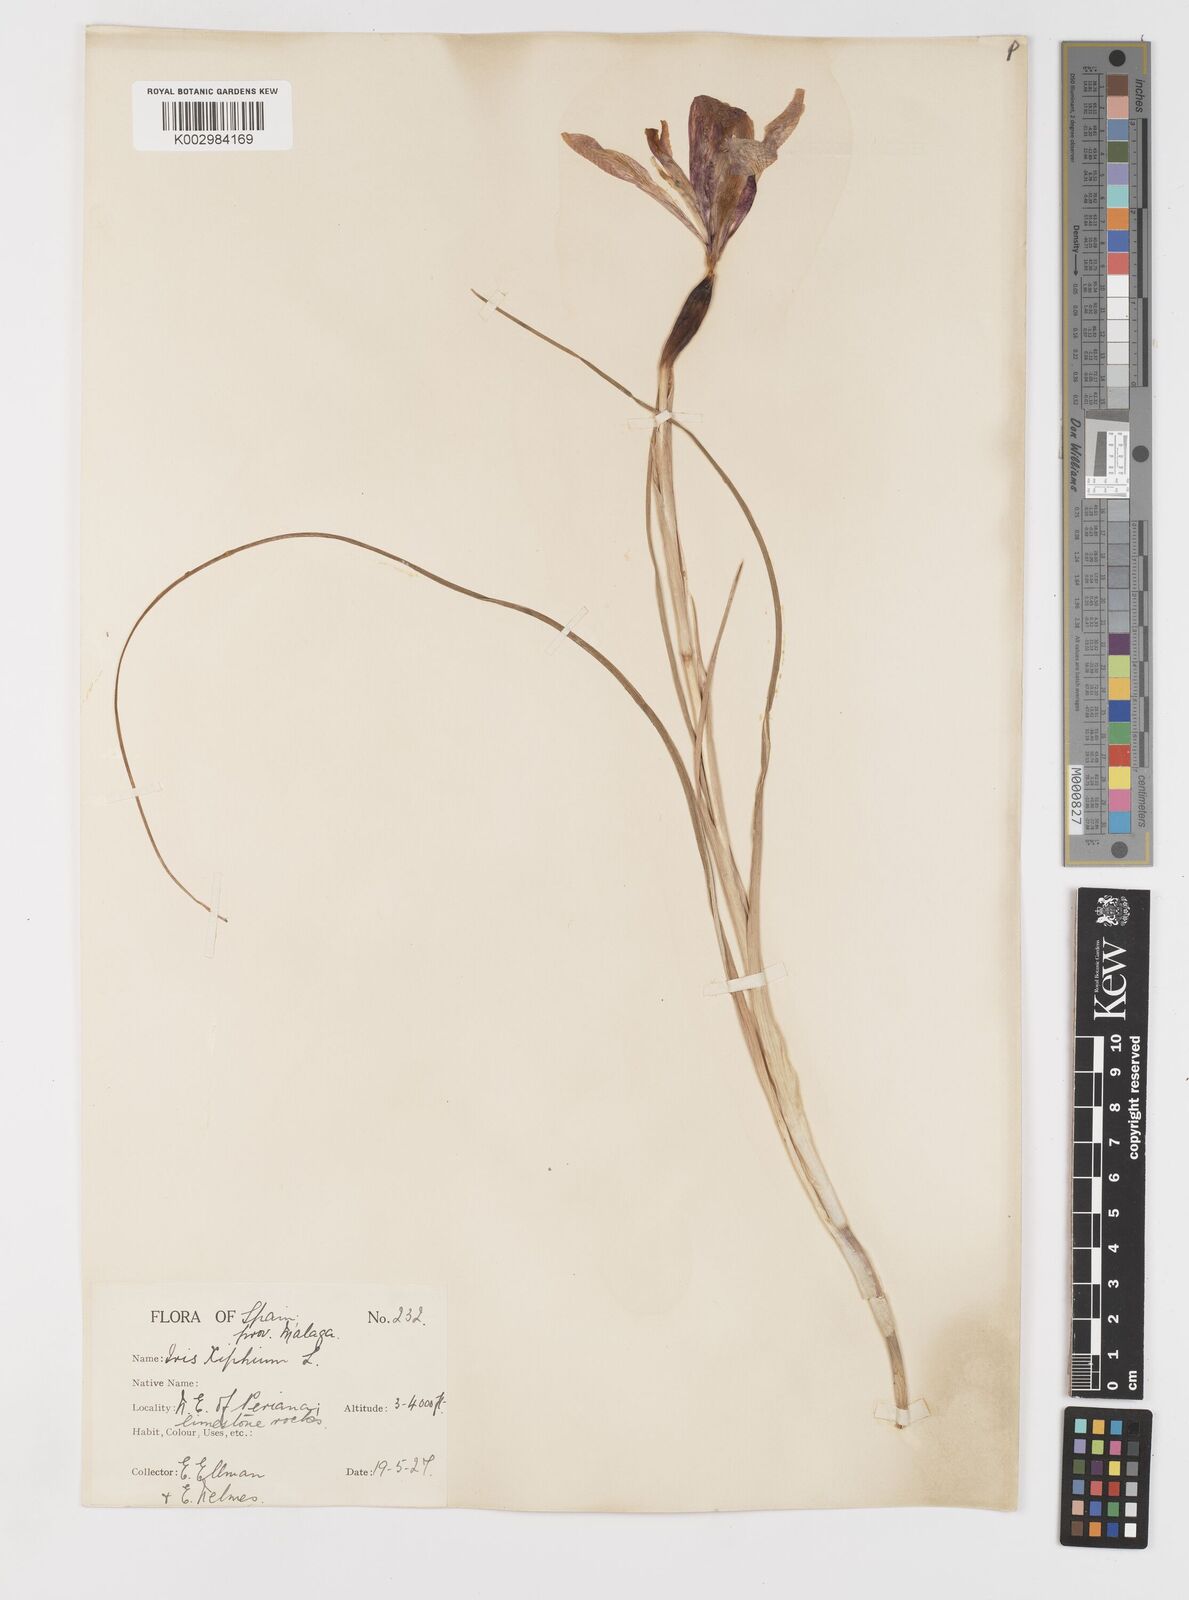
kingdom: Plantae
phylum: Tracheophyta
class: Liliopsida
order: Asparagales
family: Iridaceae
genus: Iris
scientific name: Iris xiphium
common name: Spanish iris
